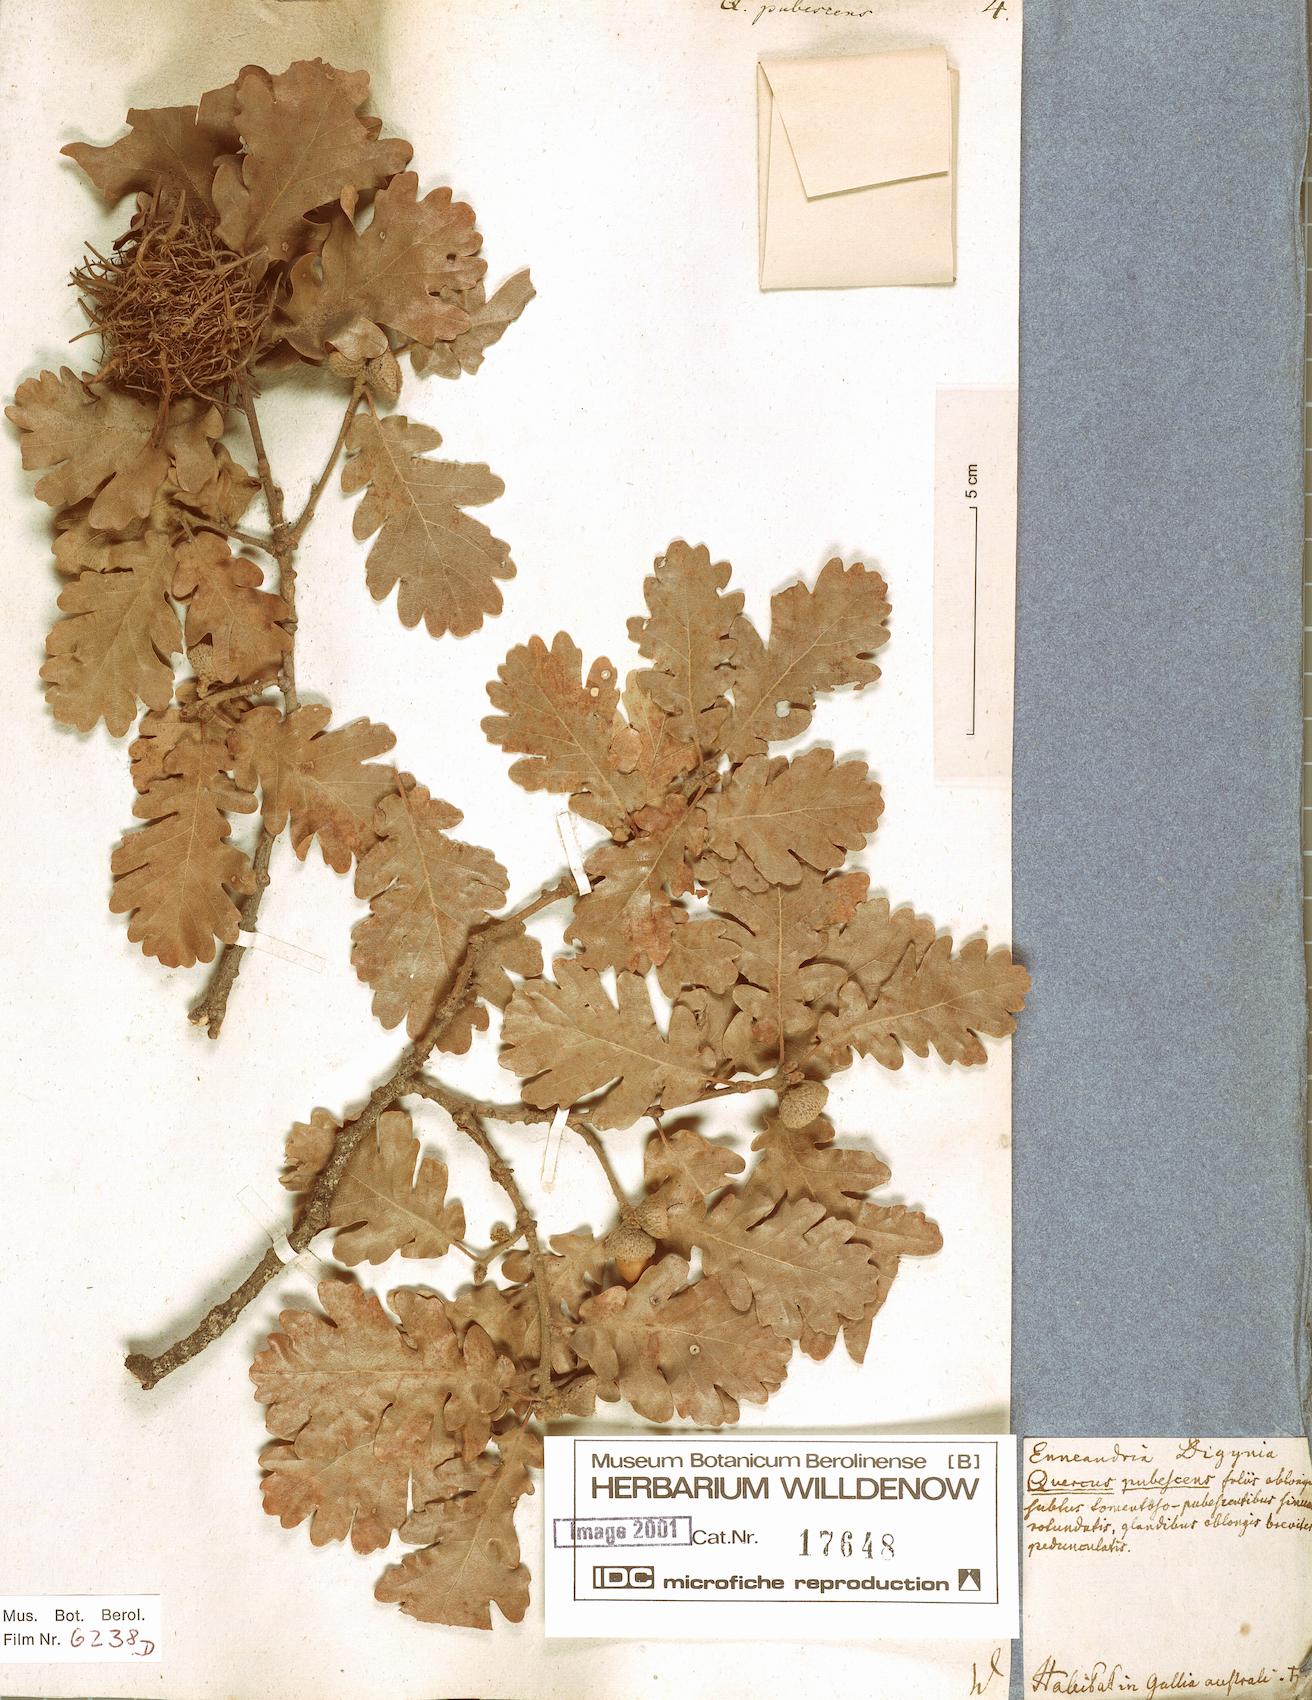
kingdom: Plantae
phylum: Tracheophyta
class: Magnoliopsida
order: Fagales
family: Fagaceae
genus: Quercus
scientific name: Quercus pubescens
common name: Downy oak
